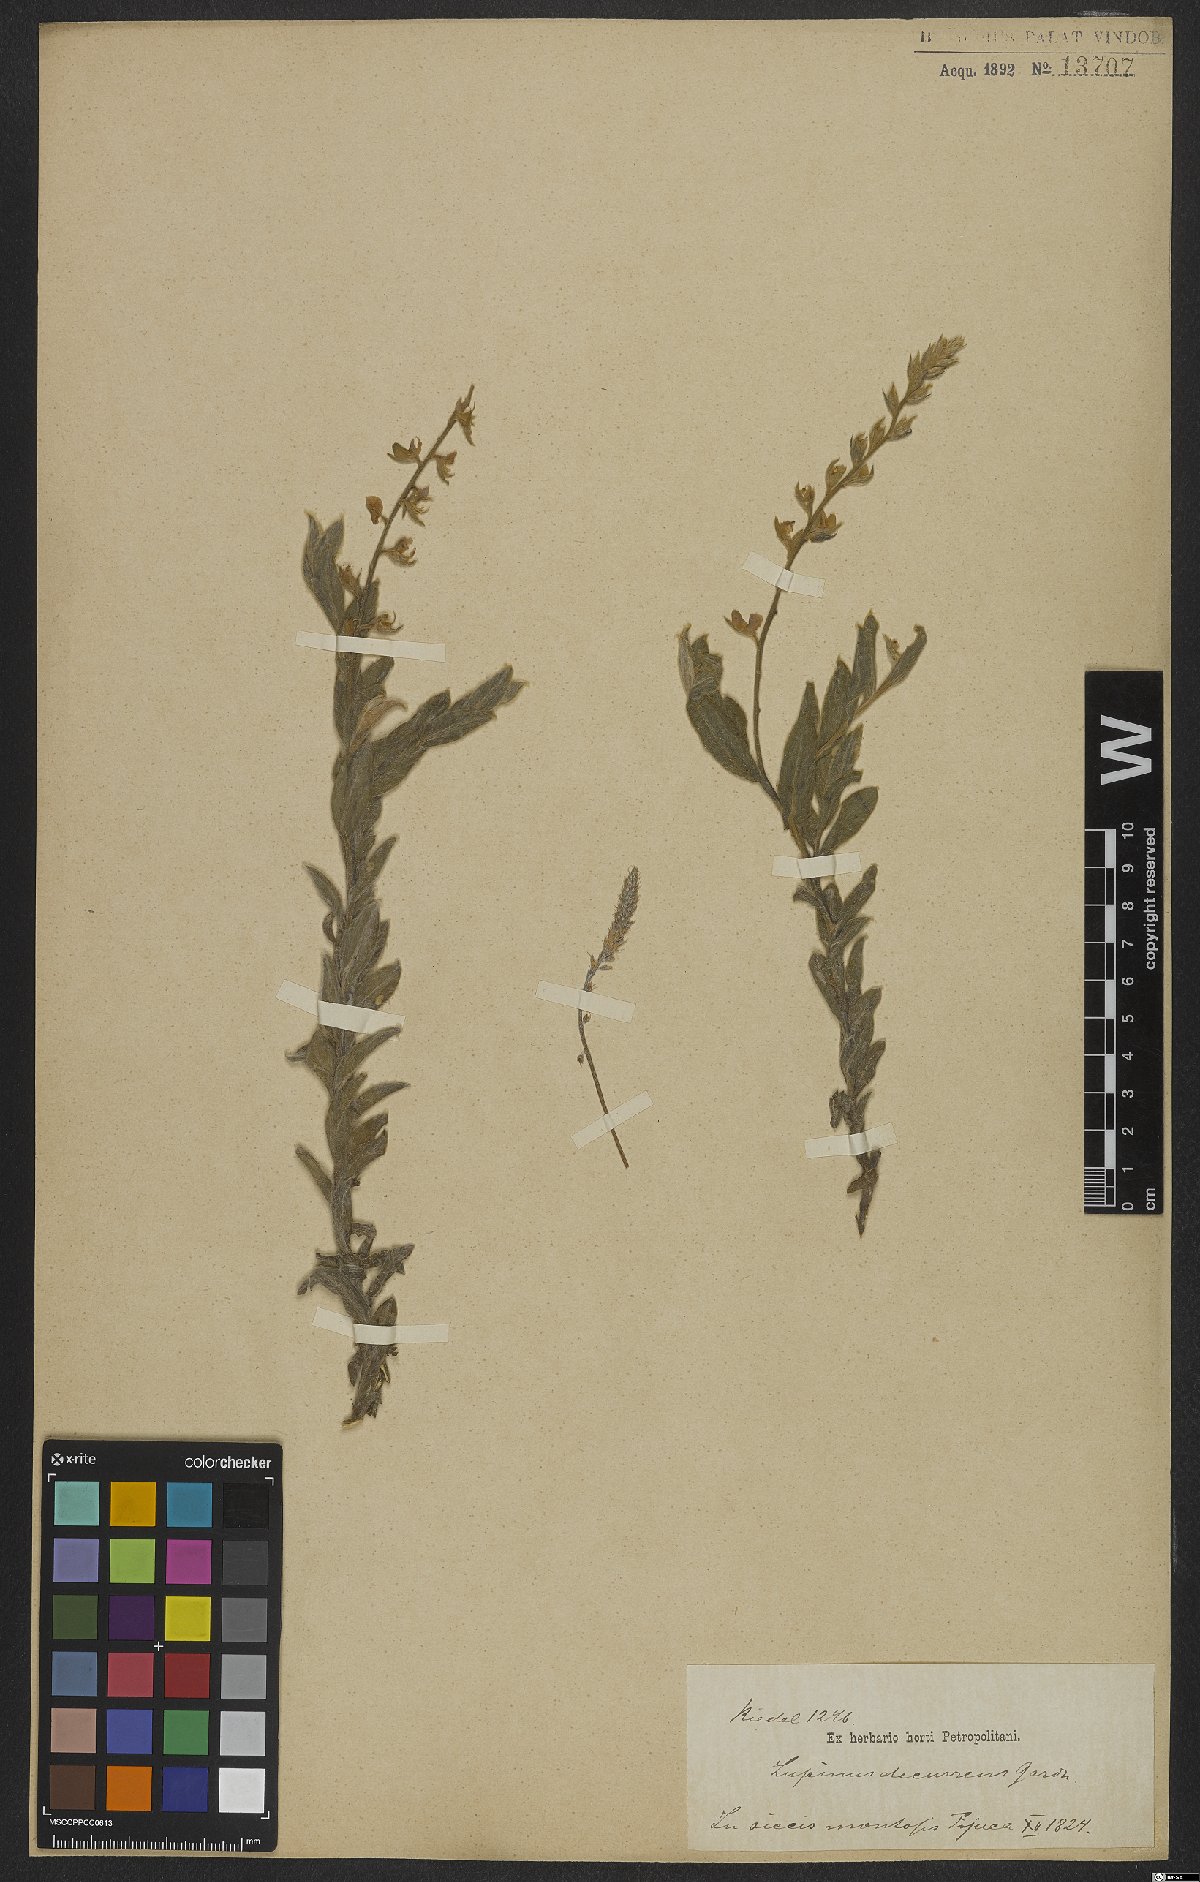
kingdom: Plantae
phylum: Tracheophyta
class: Magnoliopsida
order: Fabales
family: Fabaceae
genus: Lupinus
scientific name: Lupinus decurrens
